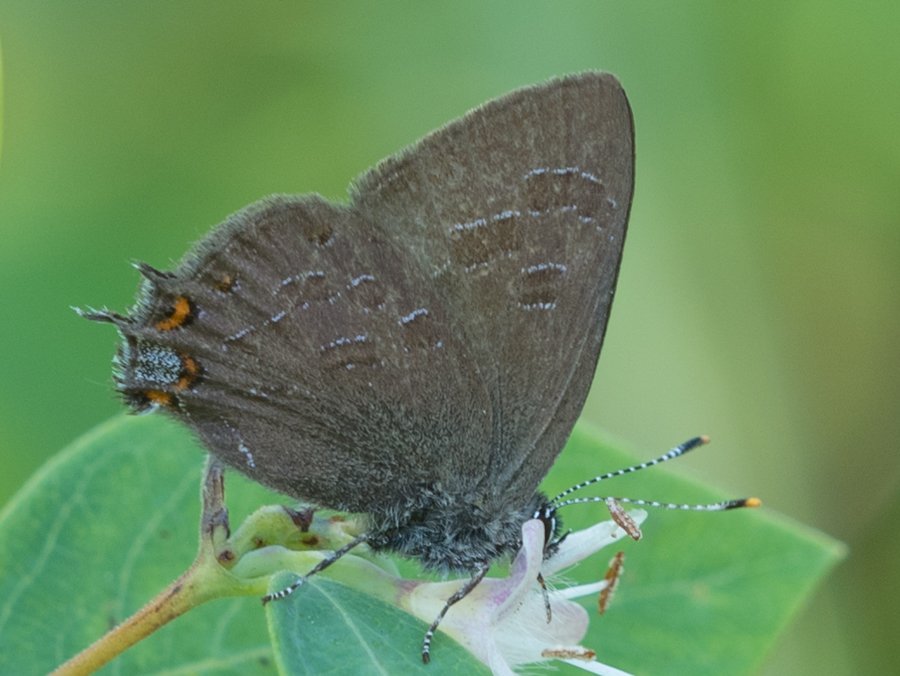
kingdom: Animalia
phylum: Arthropoda
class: Insecta
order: Lepidoptera
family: Lycaenidae
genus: Satyrium
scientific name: Satyrium liparops
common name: Striped Hairstreak
